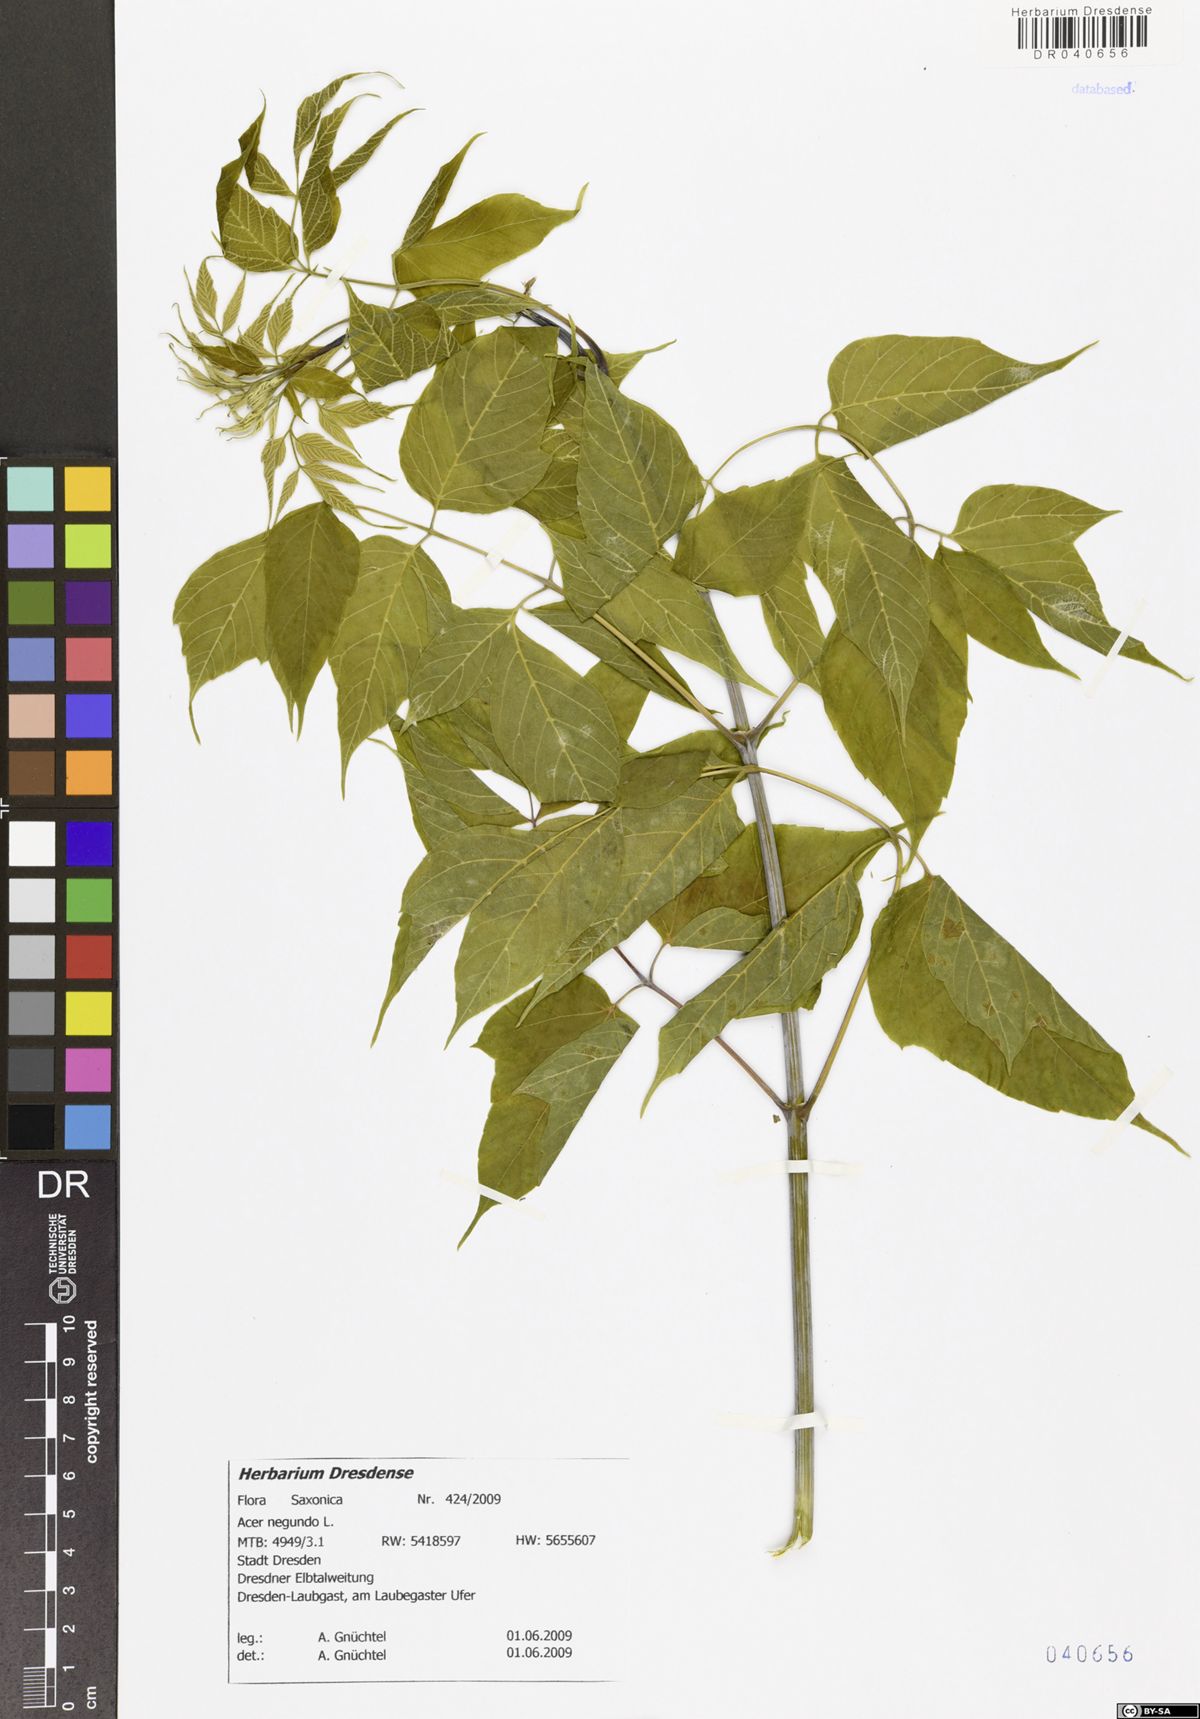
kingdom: Plantae
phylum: Tracheophyta
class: Magnoliopsida
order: Sapindales
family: Sapindaceae
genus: Acer
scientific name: Acer negundo
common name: Ashleaf maple
